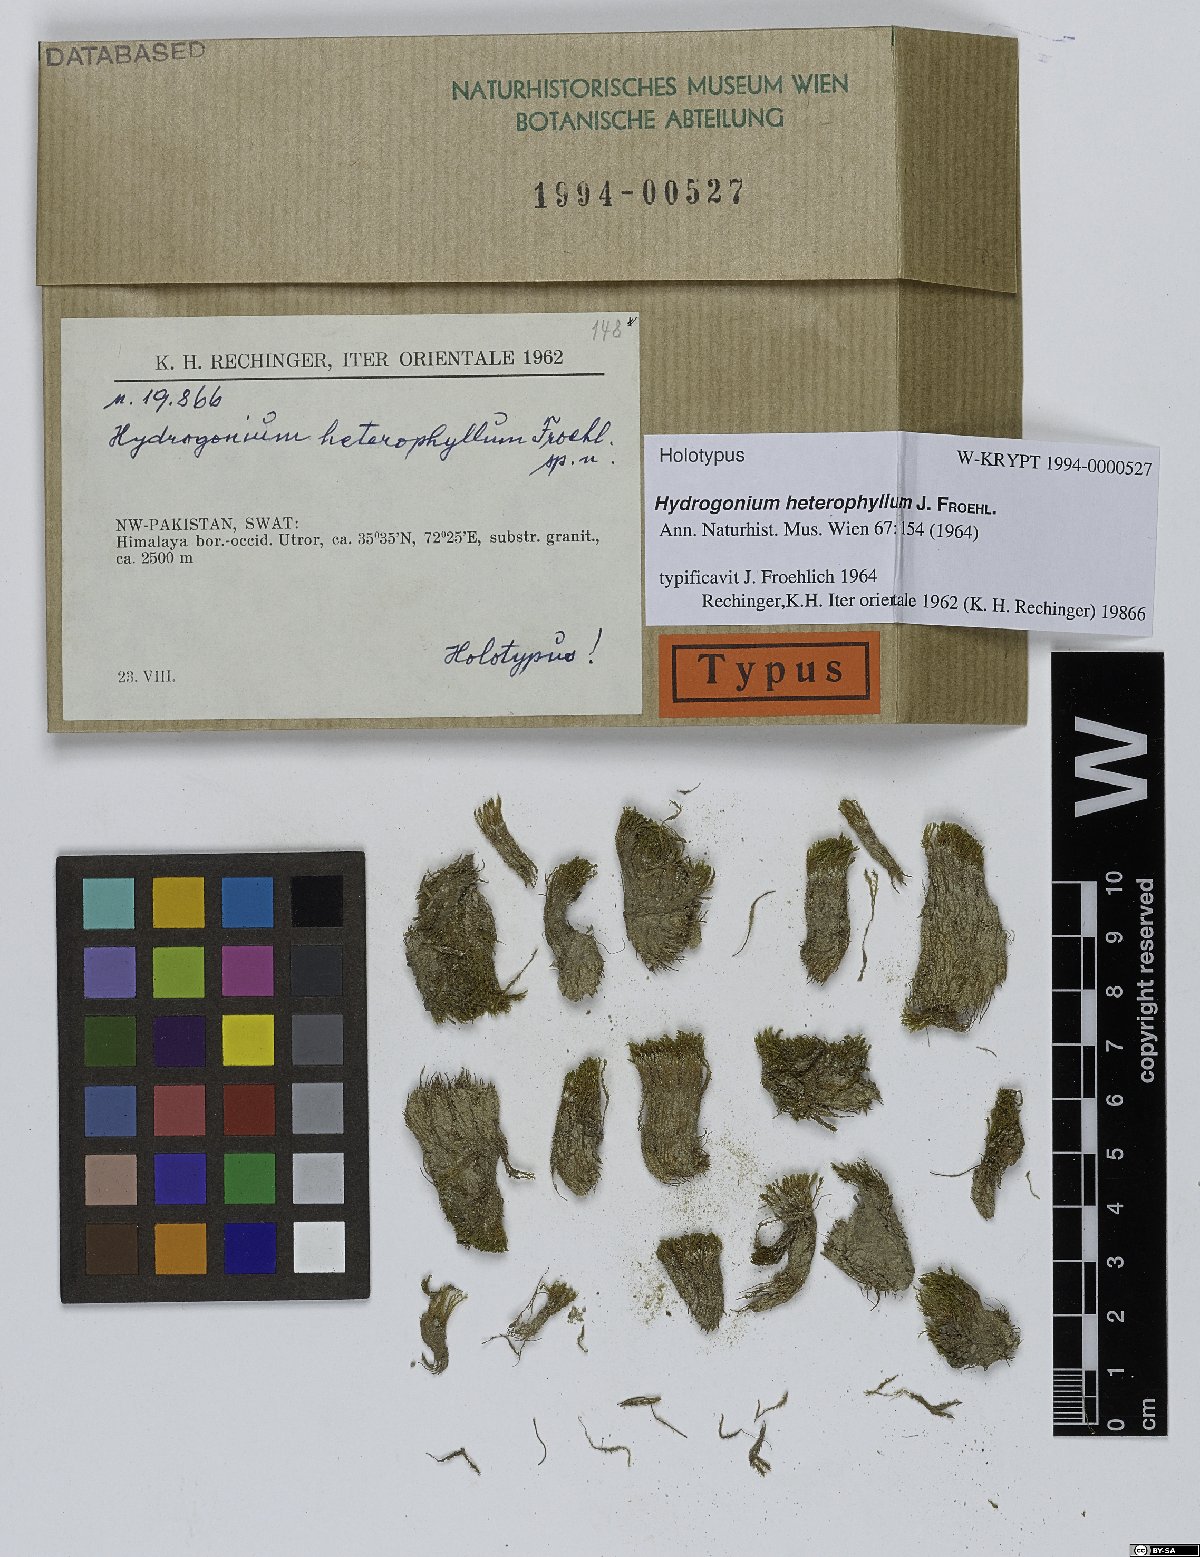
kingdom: Plantae
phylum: Bryophyta
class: Bryopsida
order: Pottiales
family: Pottiaceae
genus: Hydrogonium
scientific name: Hydrogonium heterophyllum
